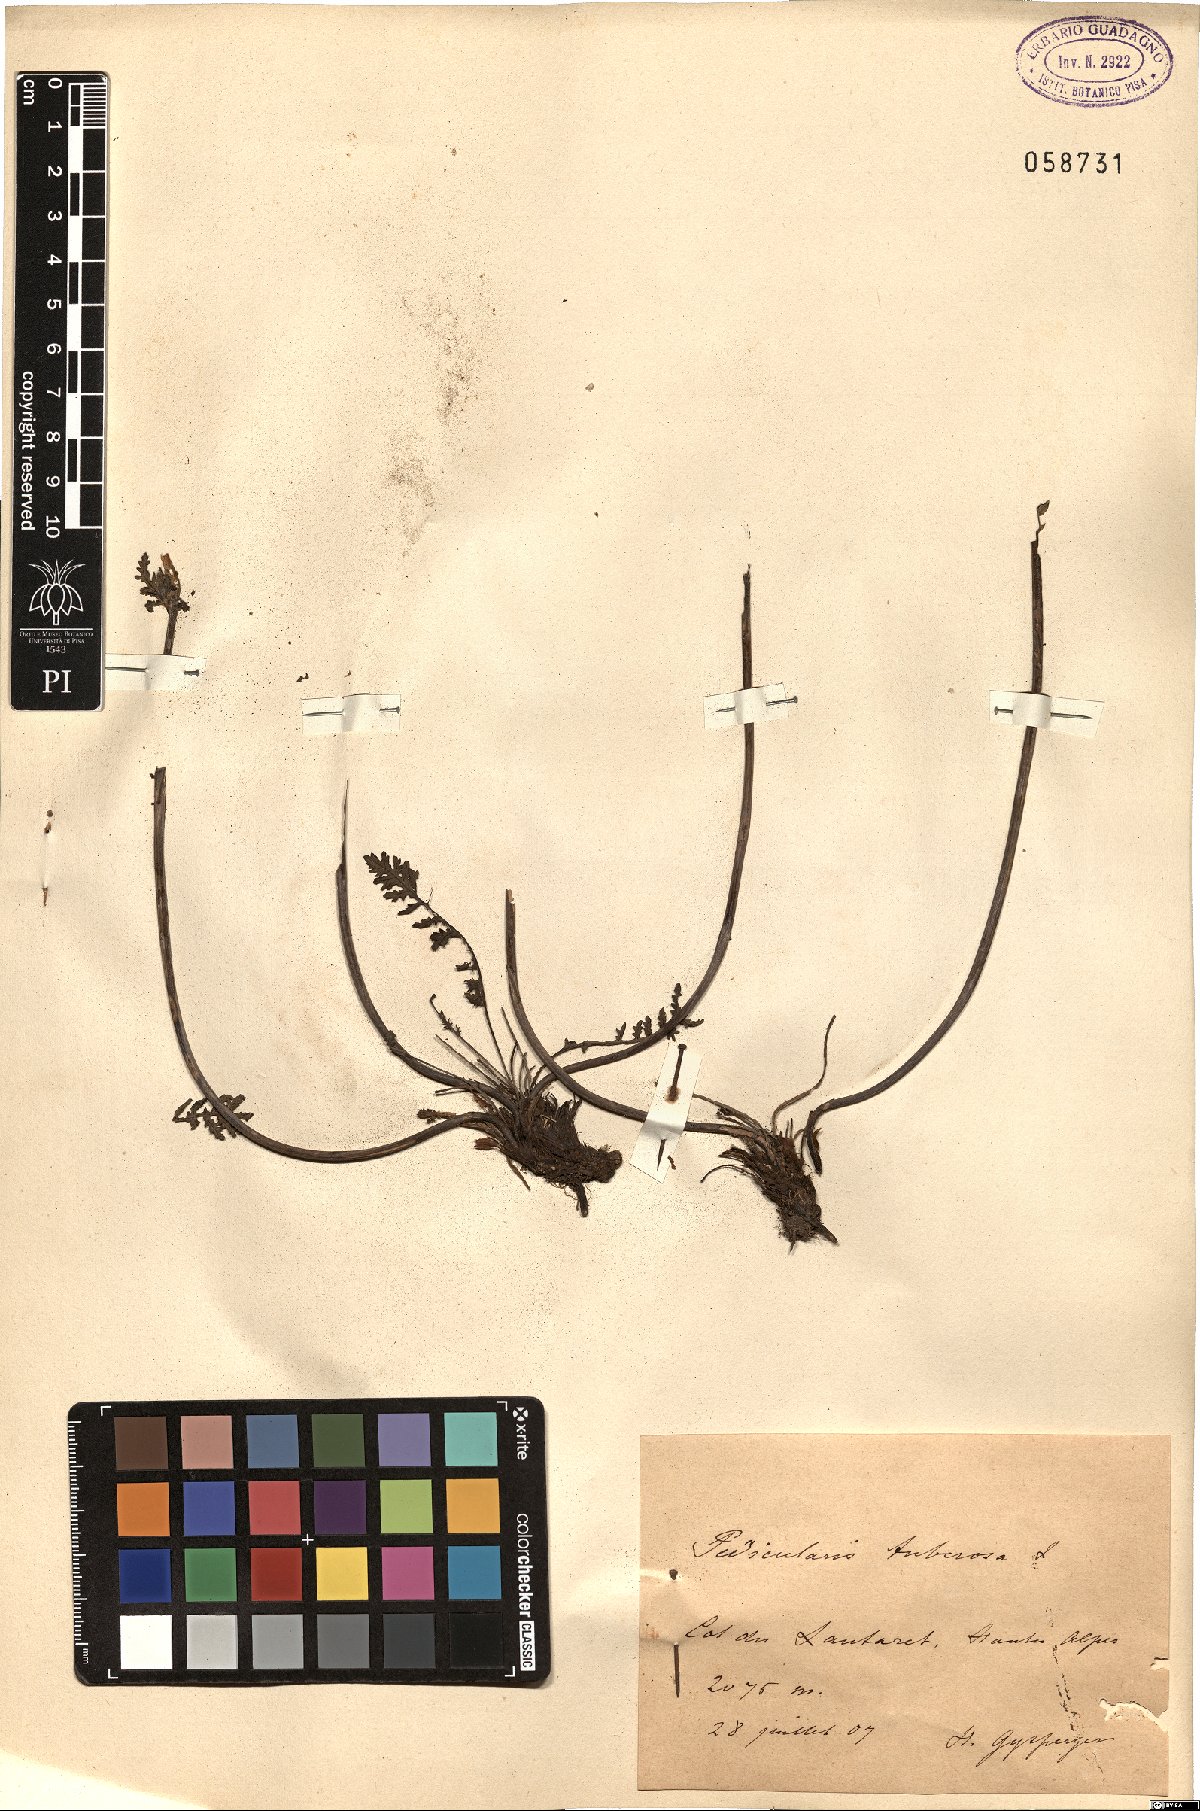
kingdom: Plantae
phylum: Tracheophyta
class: Magnoliopsida
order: Lamiales
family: Orobanchaceae
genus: Pedicularis
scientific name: Pedicularis tuberosa
